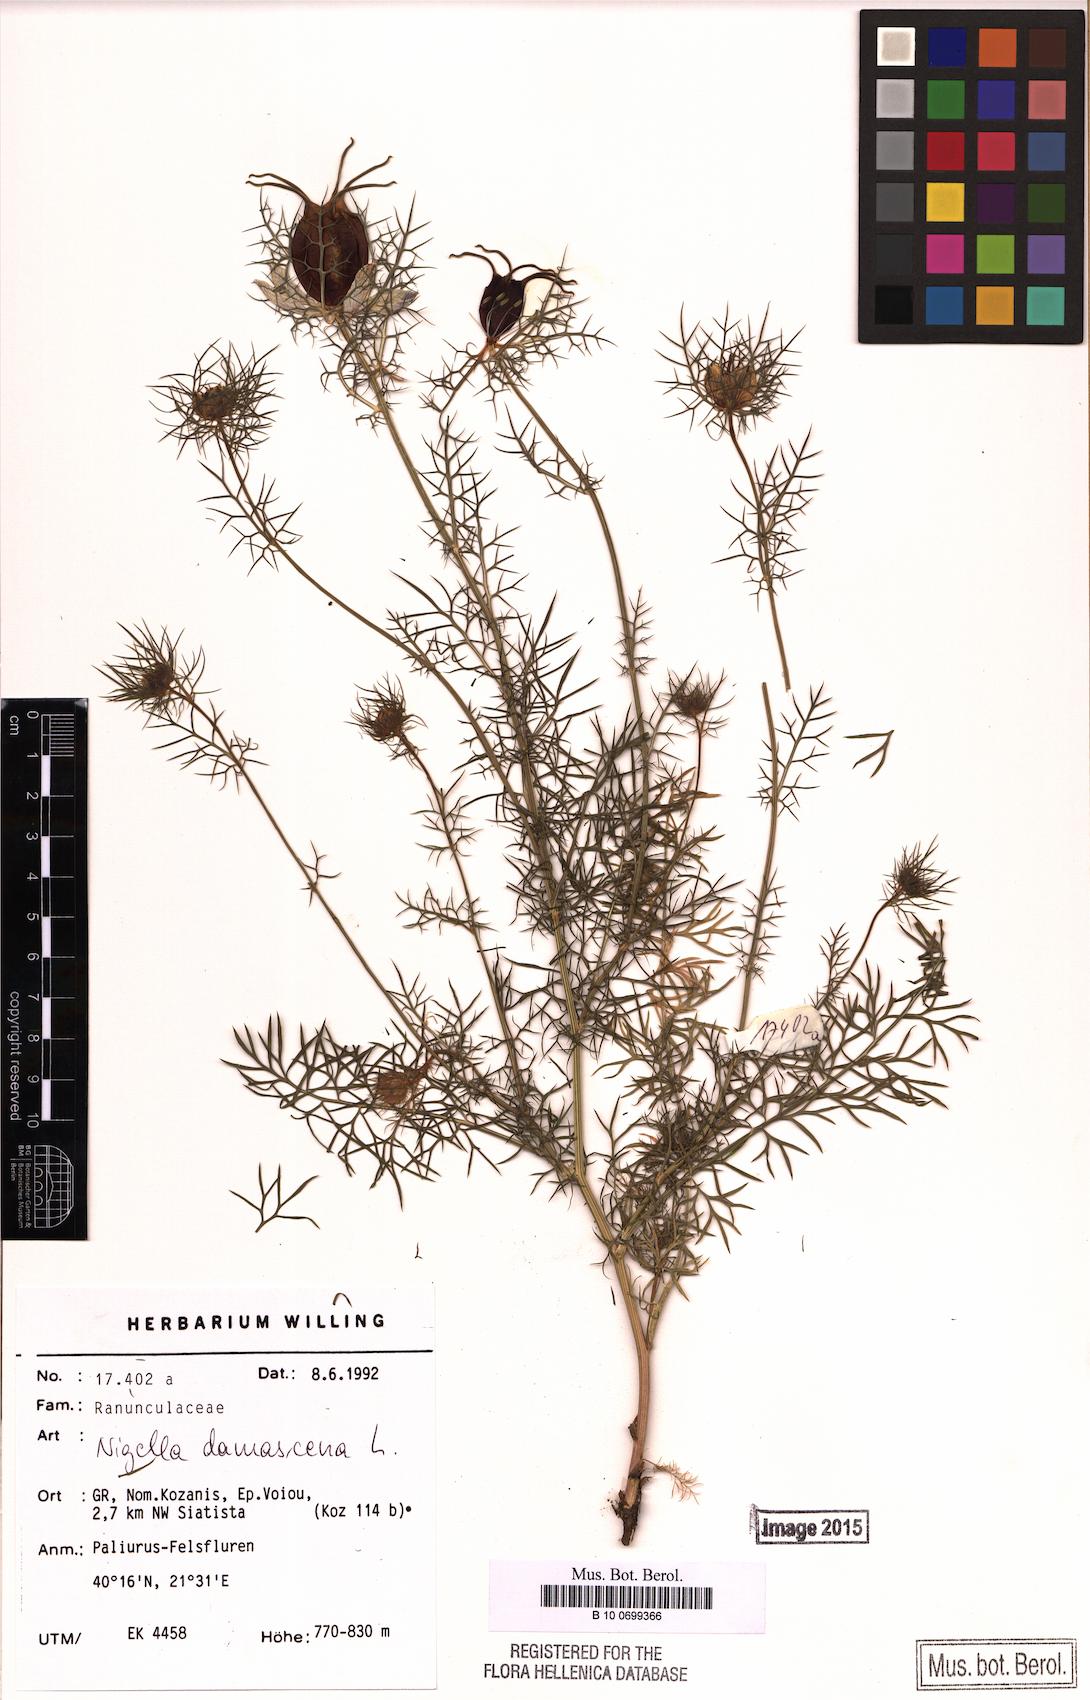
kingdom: Plantae
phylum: Tracheophyta
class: Magnoliopsida
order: Ranunculales
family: Ranunculaceae
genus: Nigella
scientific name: Nigella damascena
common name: Love-in-a-mist
